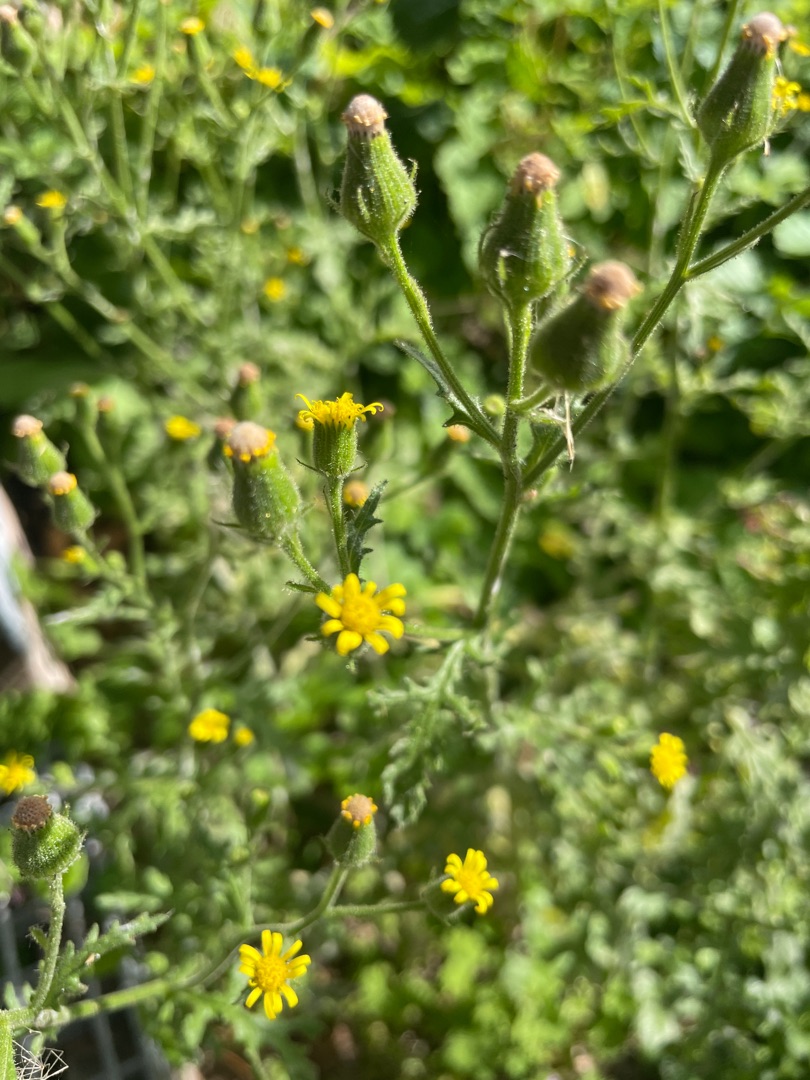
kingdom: Plantae
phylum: Tracheophyta
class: Magnoliopsida
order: Asterales
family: Asteraceae
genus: Senecio
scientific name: Senecio viscosus
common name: Klæbrig brandbæger
